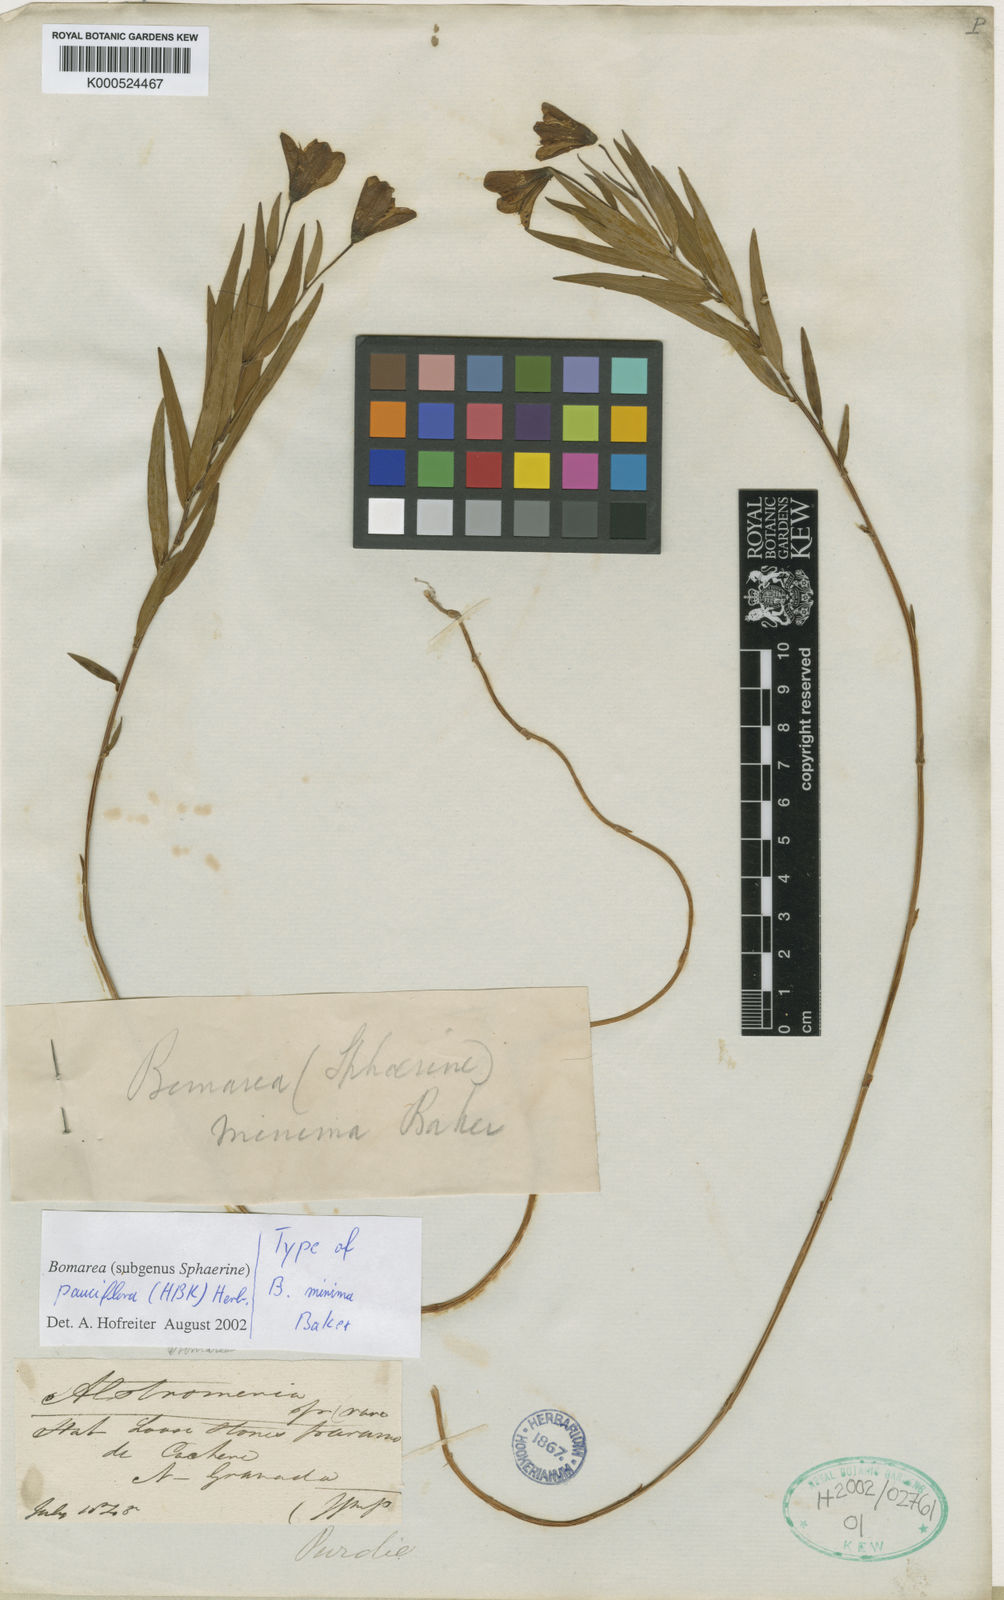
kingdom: Plantae
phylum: Tracheophyta
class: Liliopsida
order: Liliales
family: Alstroemeriaceae
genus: Bomarea
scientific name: Bomarea pauciflora
